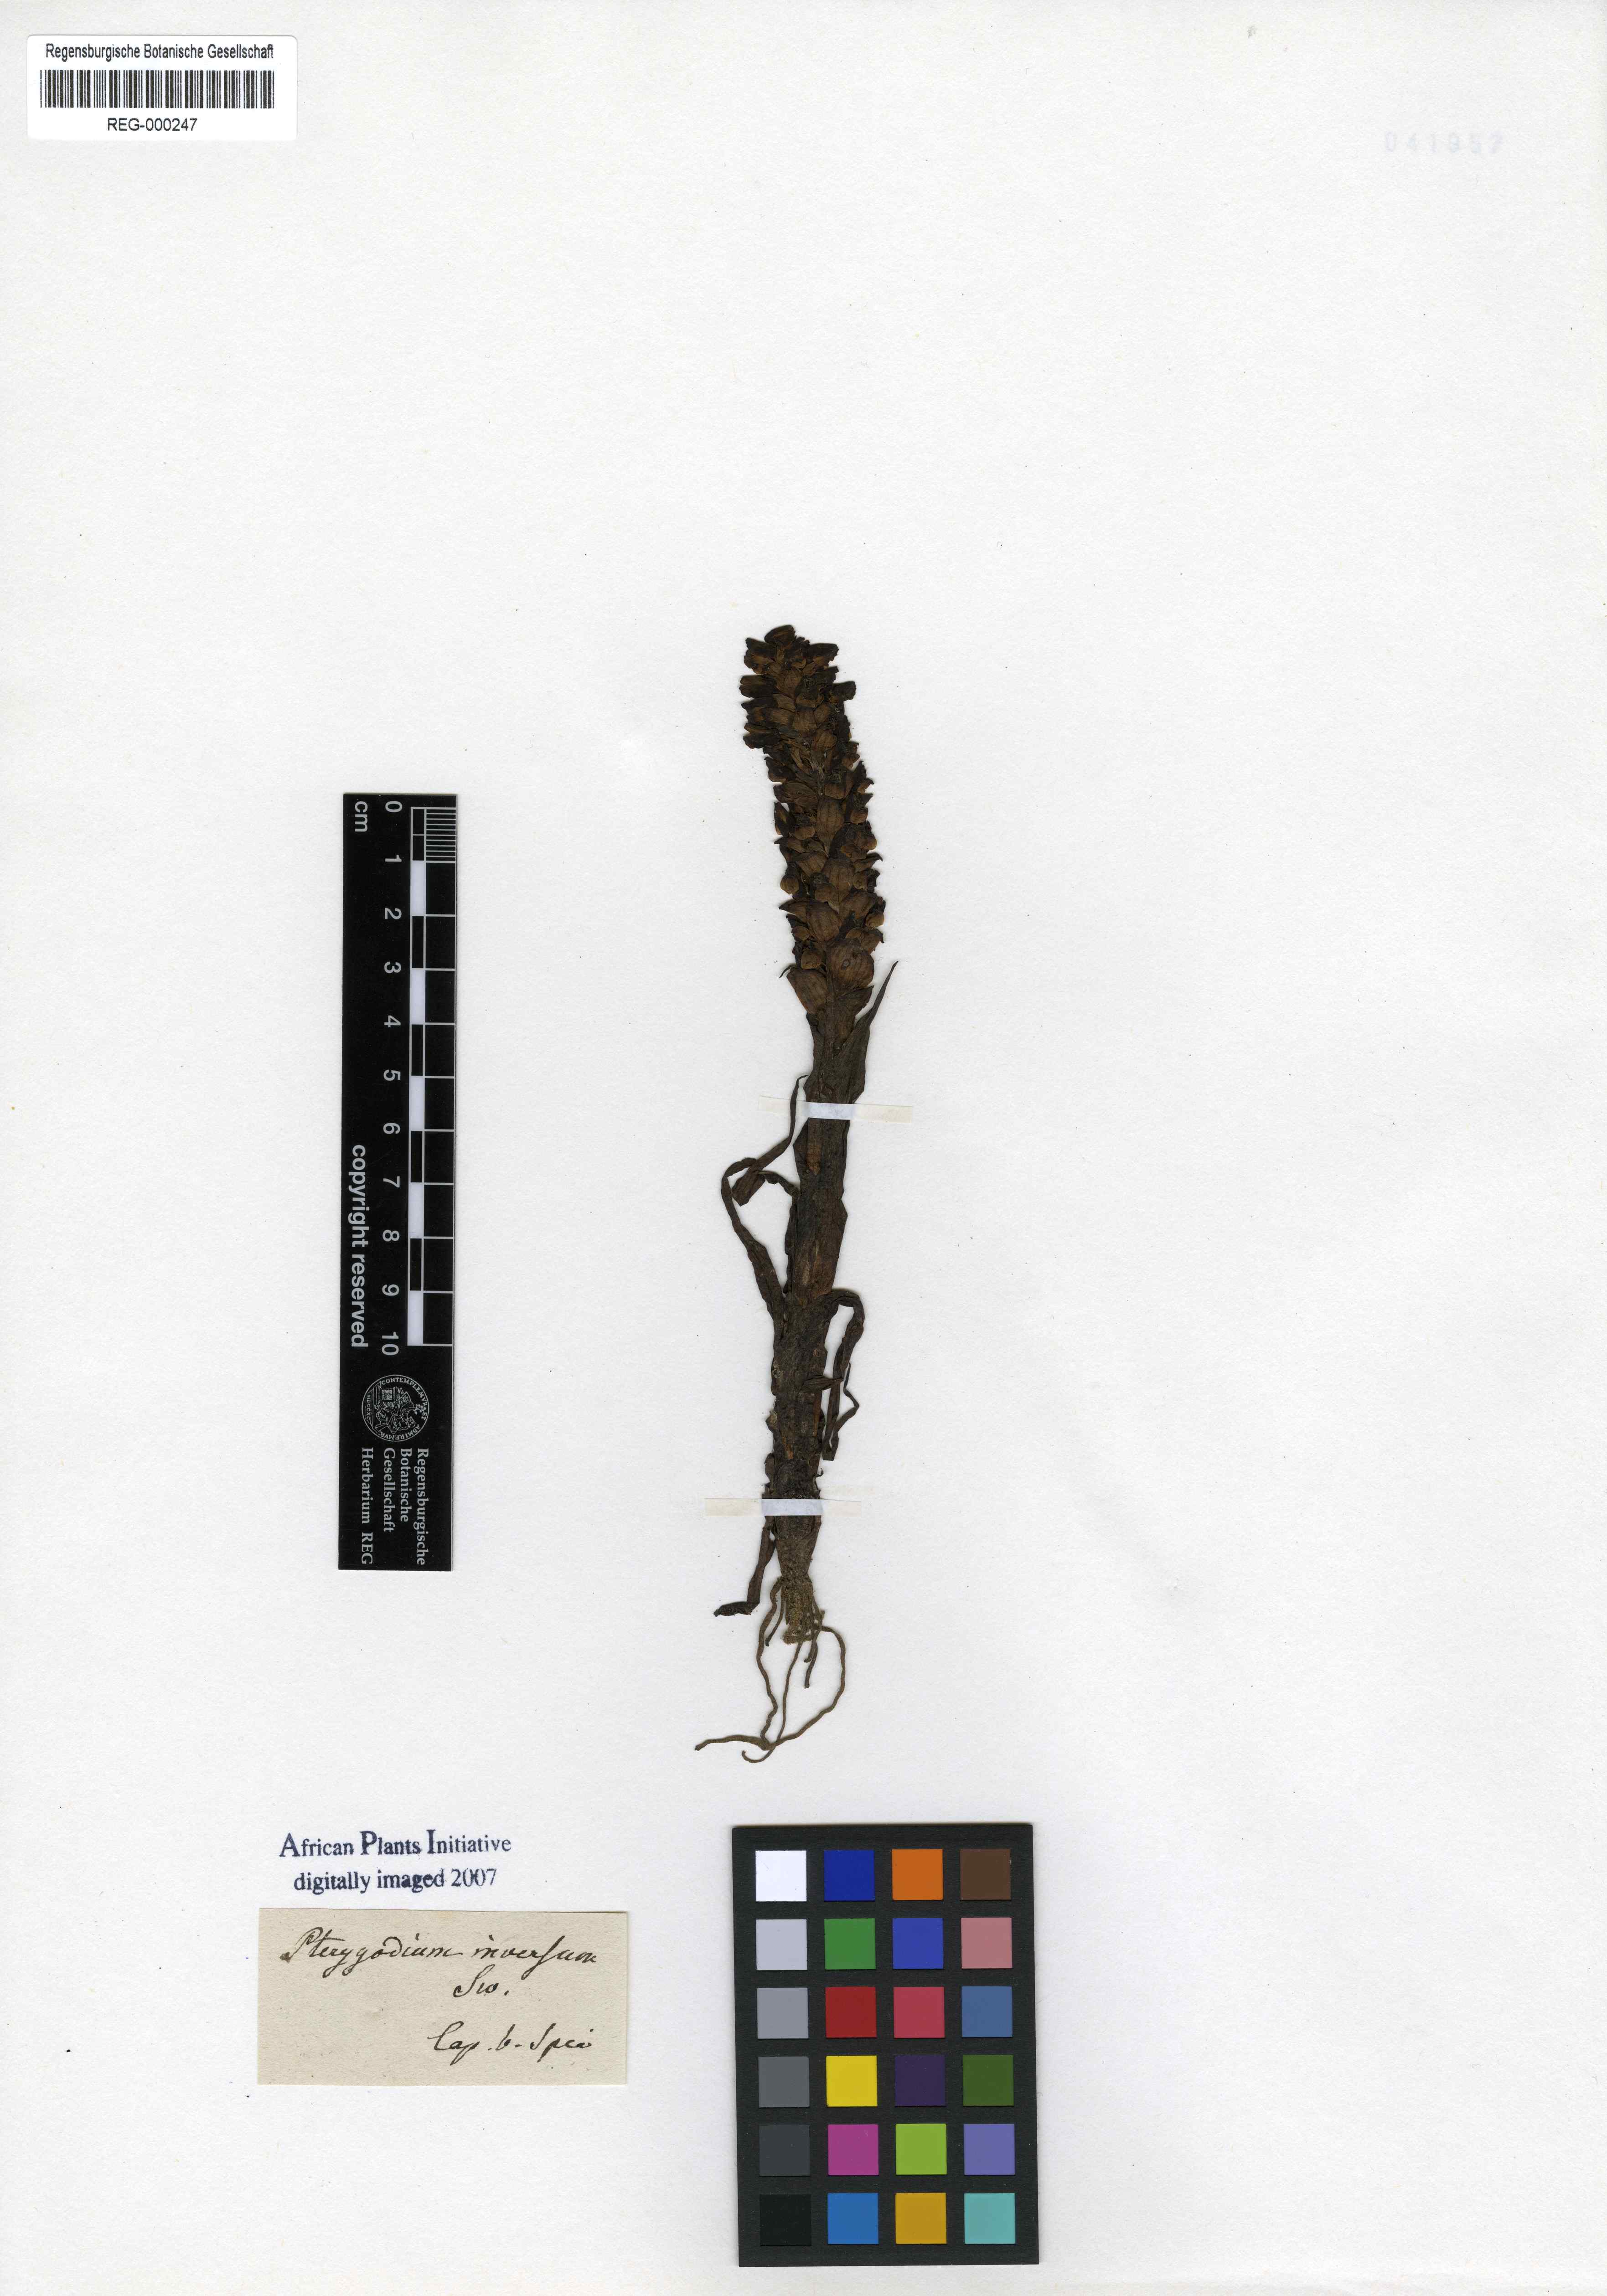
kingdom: Plantae
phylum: Tracheophyta
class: Liliopsida
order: Asparagales
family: Orchidaceae
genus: Pterygodium
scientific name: Pterygodium inversum
